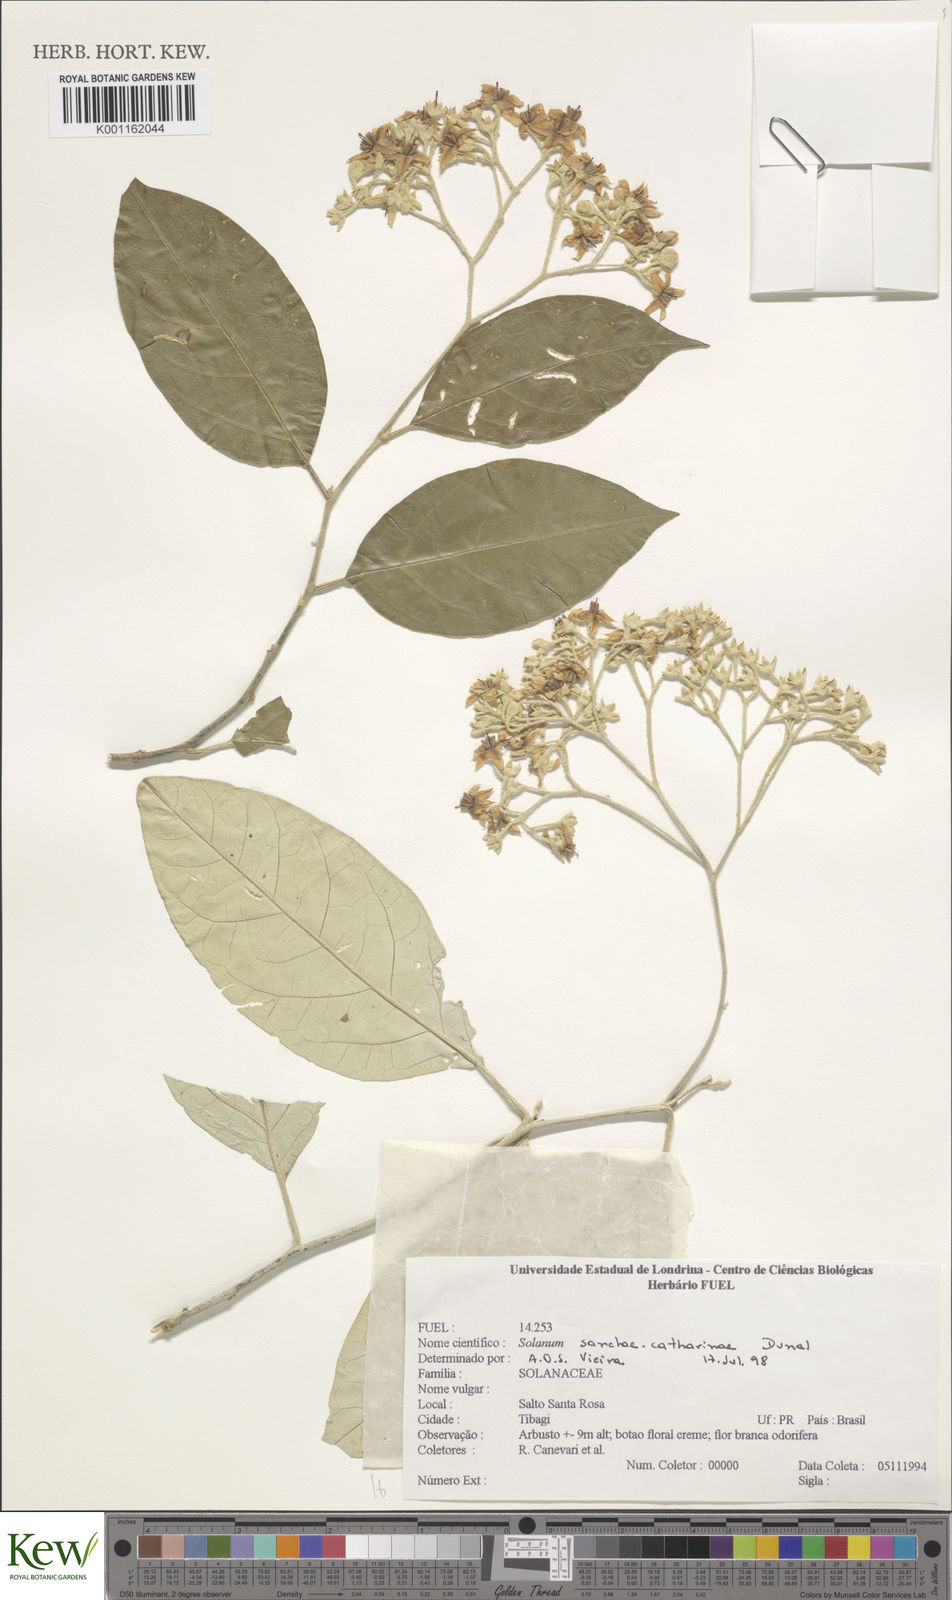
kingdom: Plantae
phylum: Tracheophyta
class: Magnoliopsida
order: Solanales
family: Solanaceae
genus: Solanum
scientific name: Solanum sanctae-catharinae
